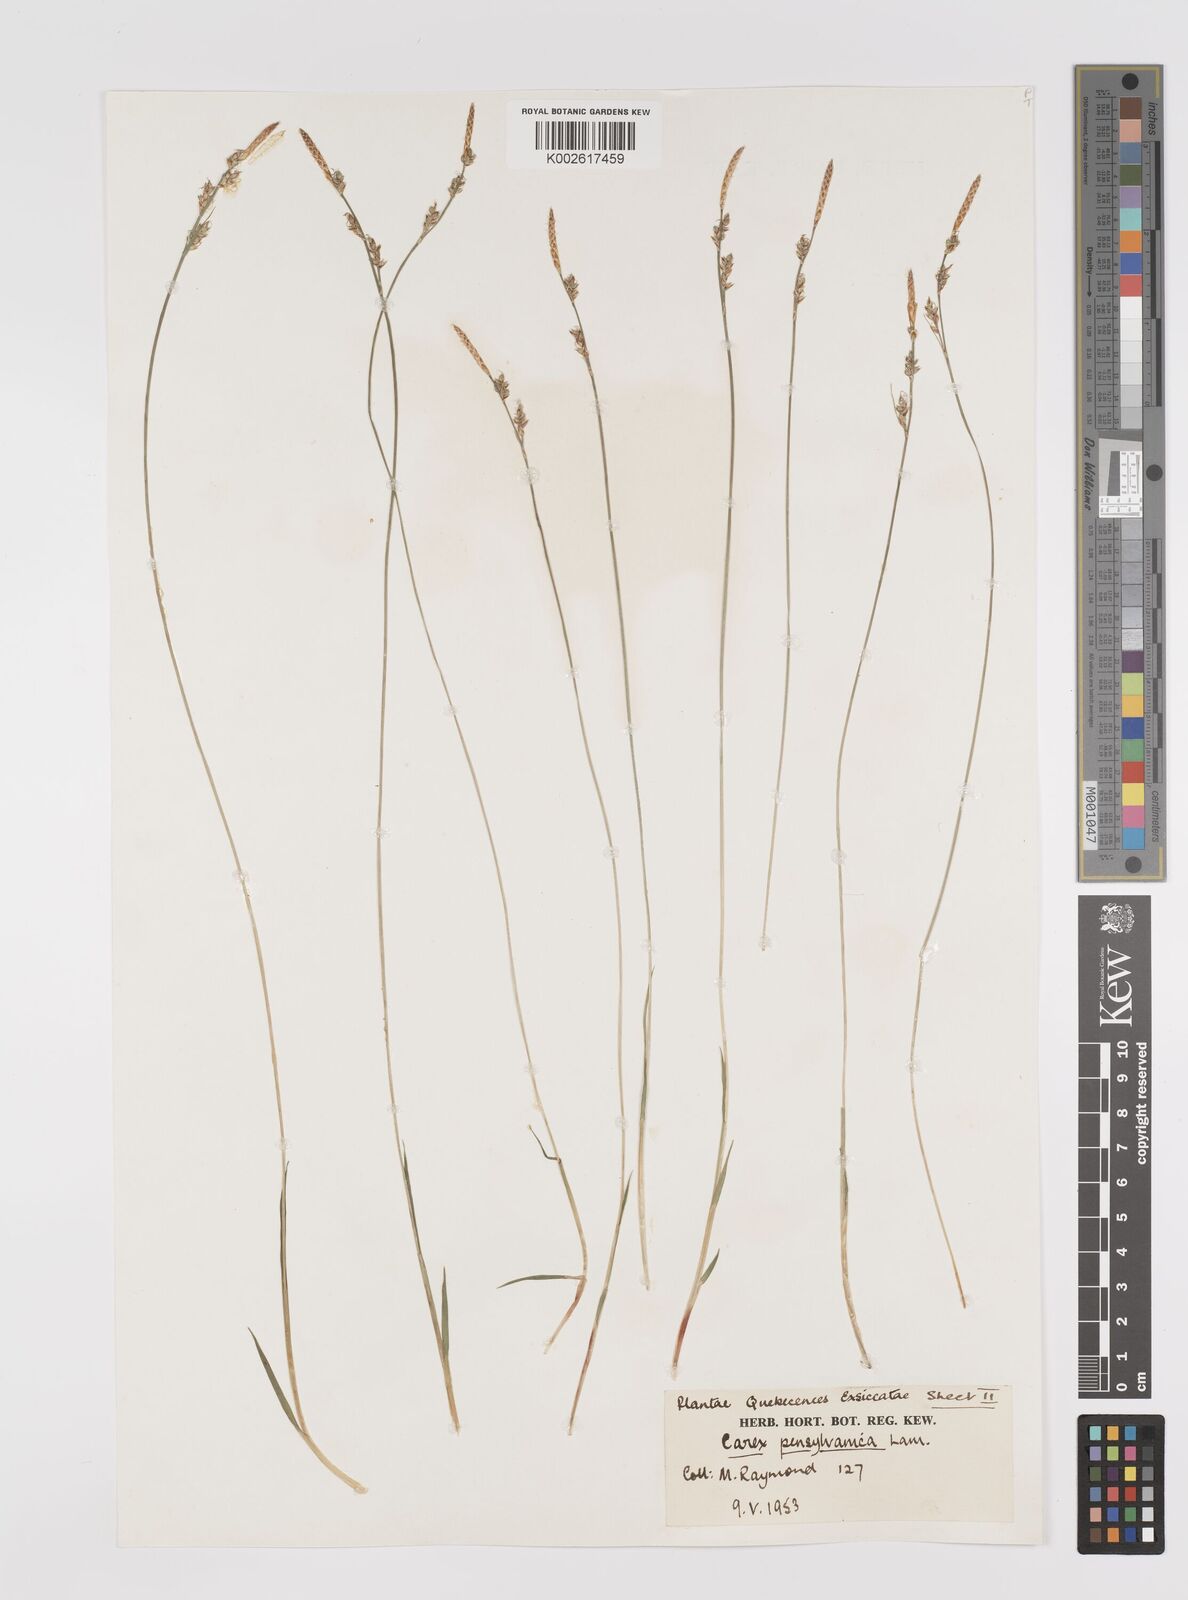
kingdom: Plantae
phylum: Tracheophyta
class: Liliopsida
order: Poales
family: Cyperaceae
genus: Carex
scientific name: Carex pensylvanica
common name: Common oak sedge
